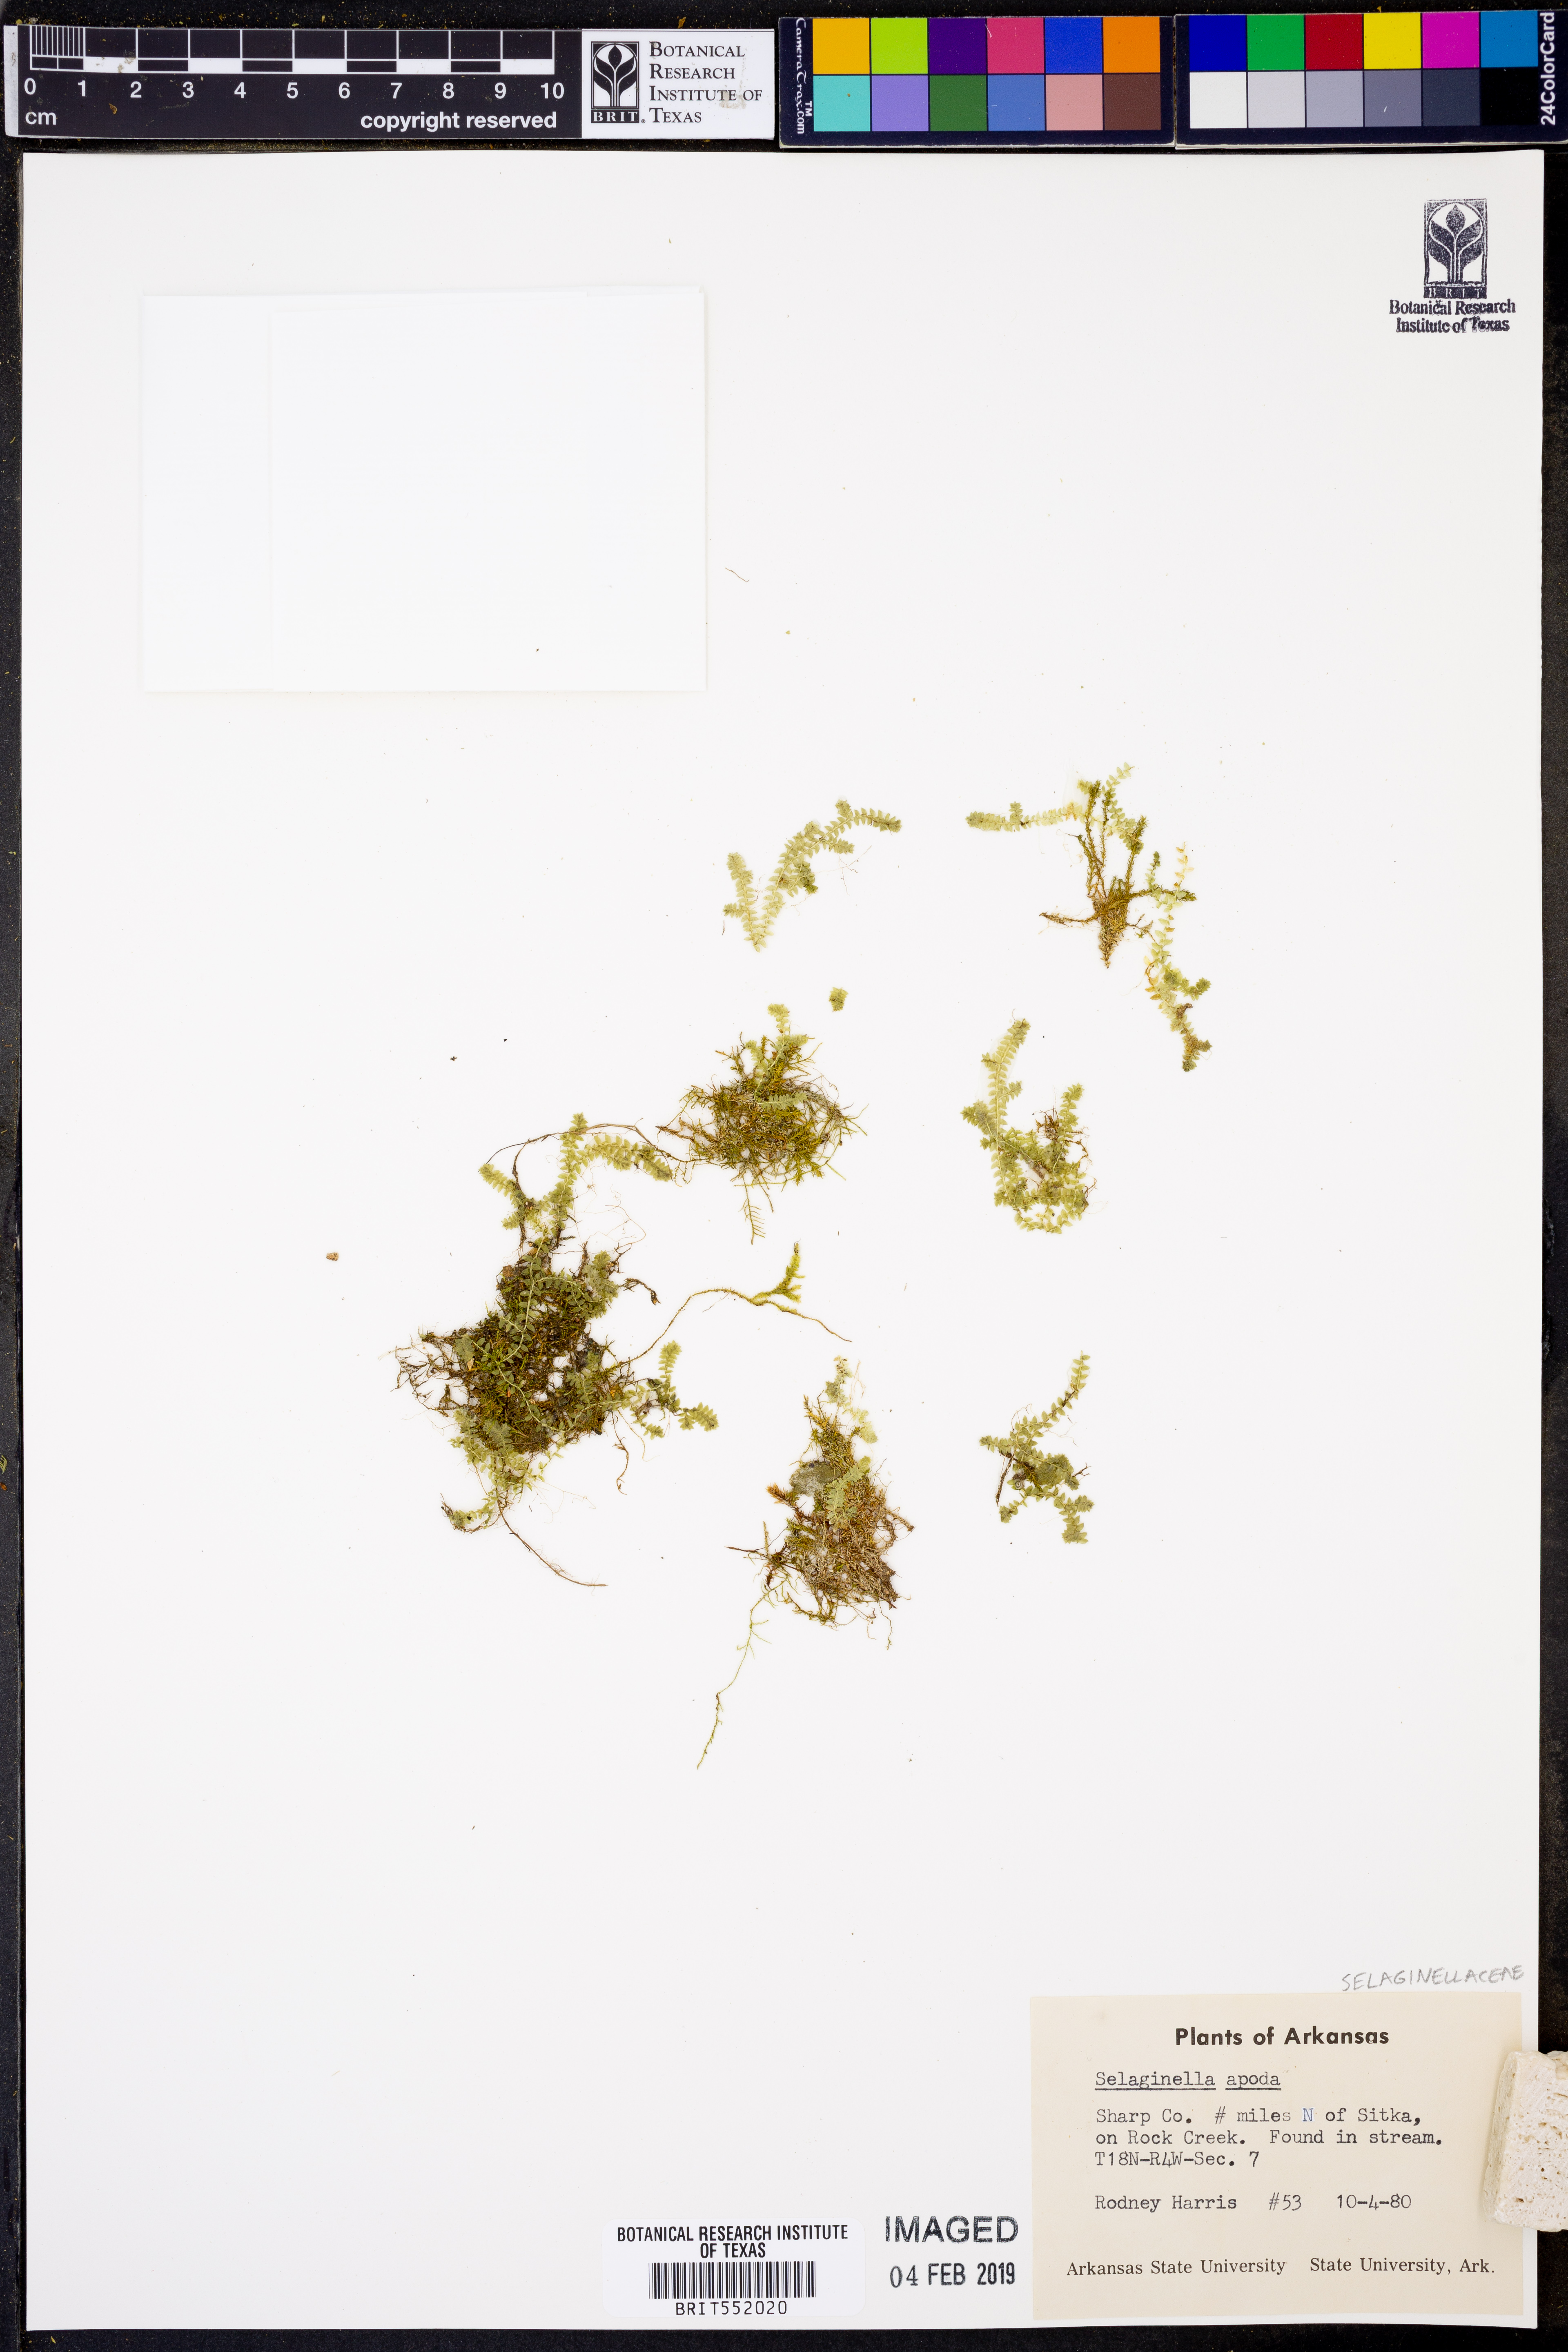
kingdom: Plantae
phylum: Tracheophyta
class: Lycopodiopsida
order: Selaginellales
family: Selaginellaceae
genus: Selaginella
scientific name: Selaginella apoda
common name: Creeping spikemoss
